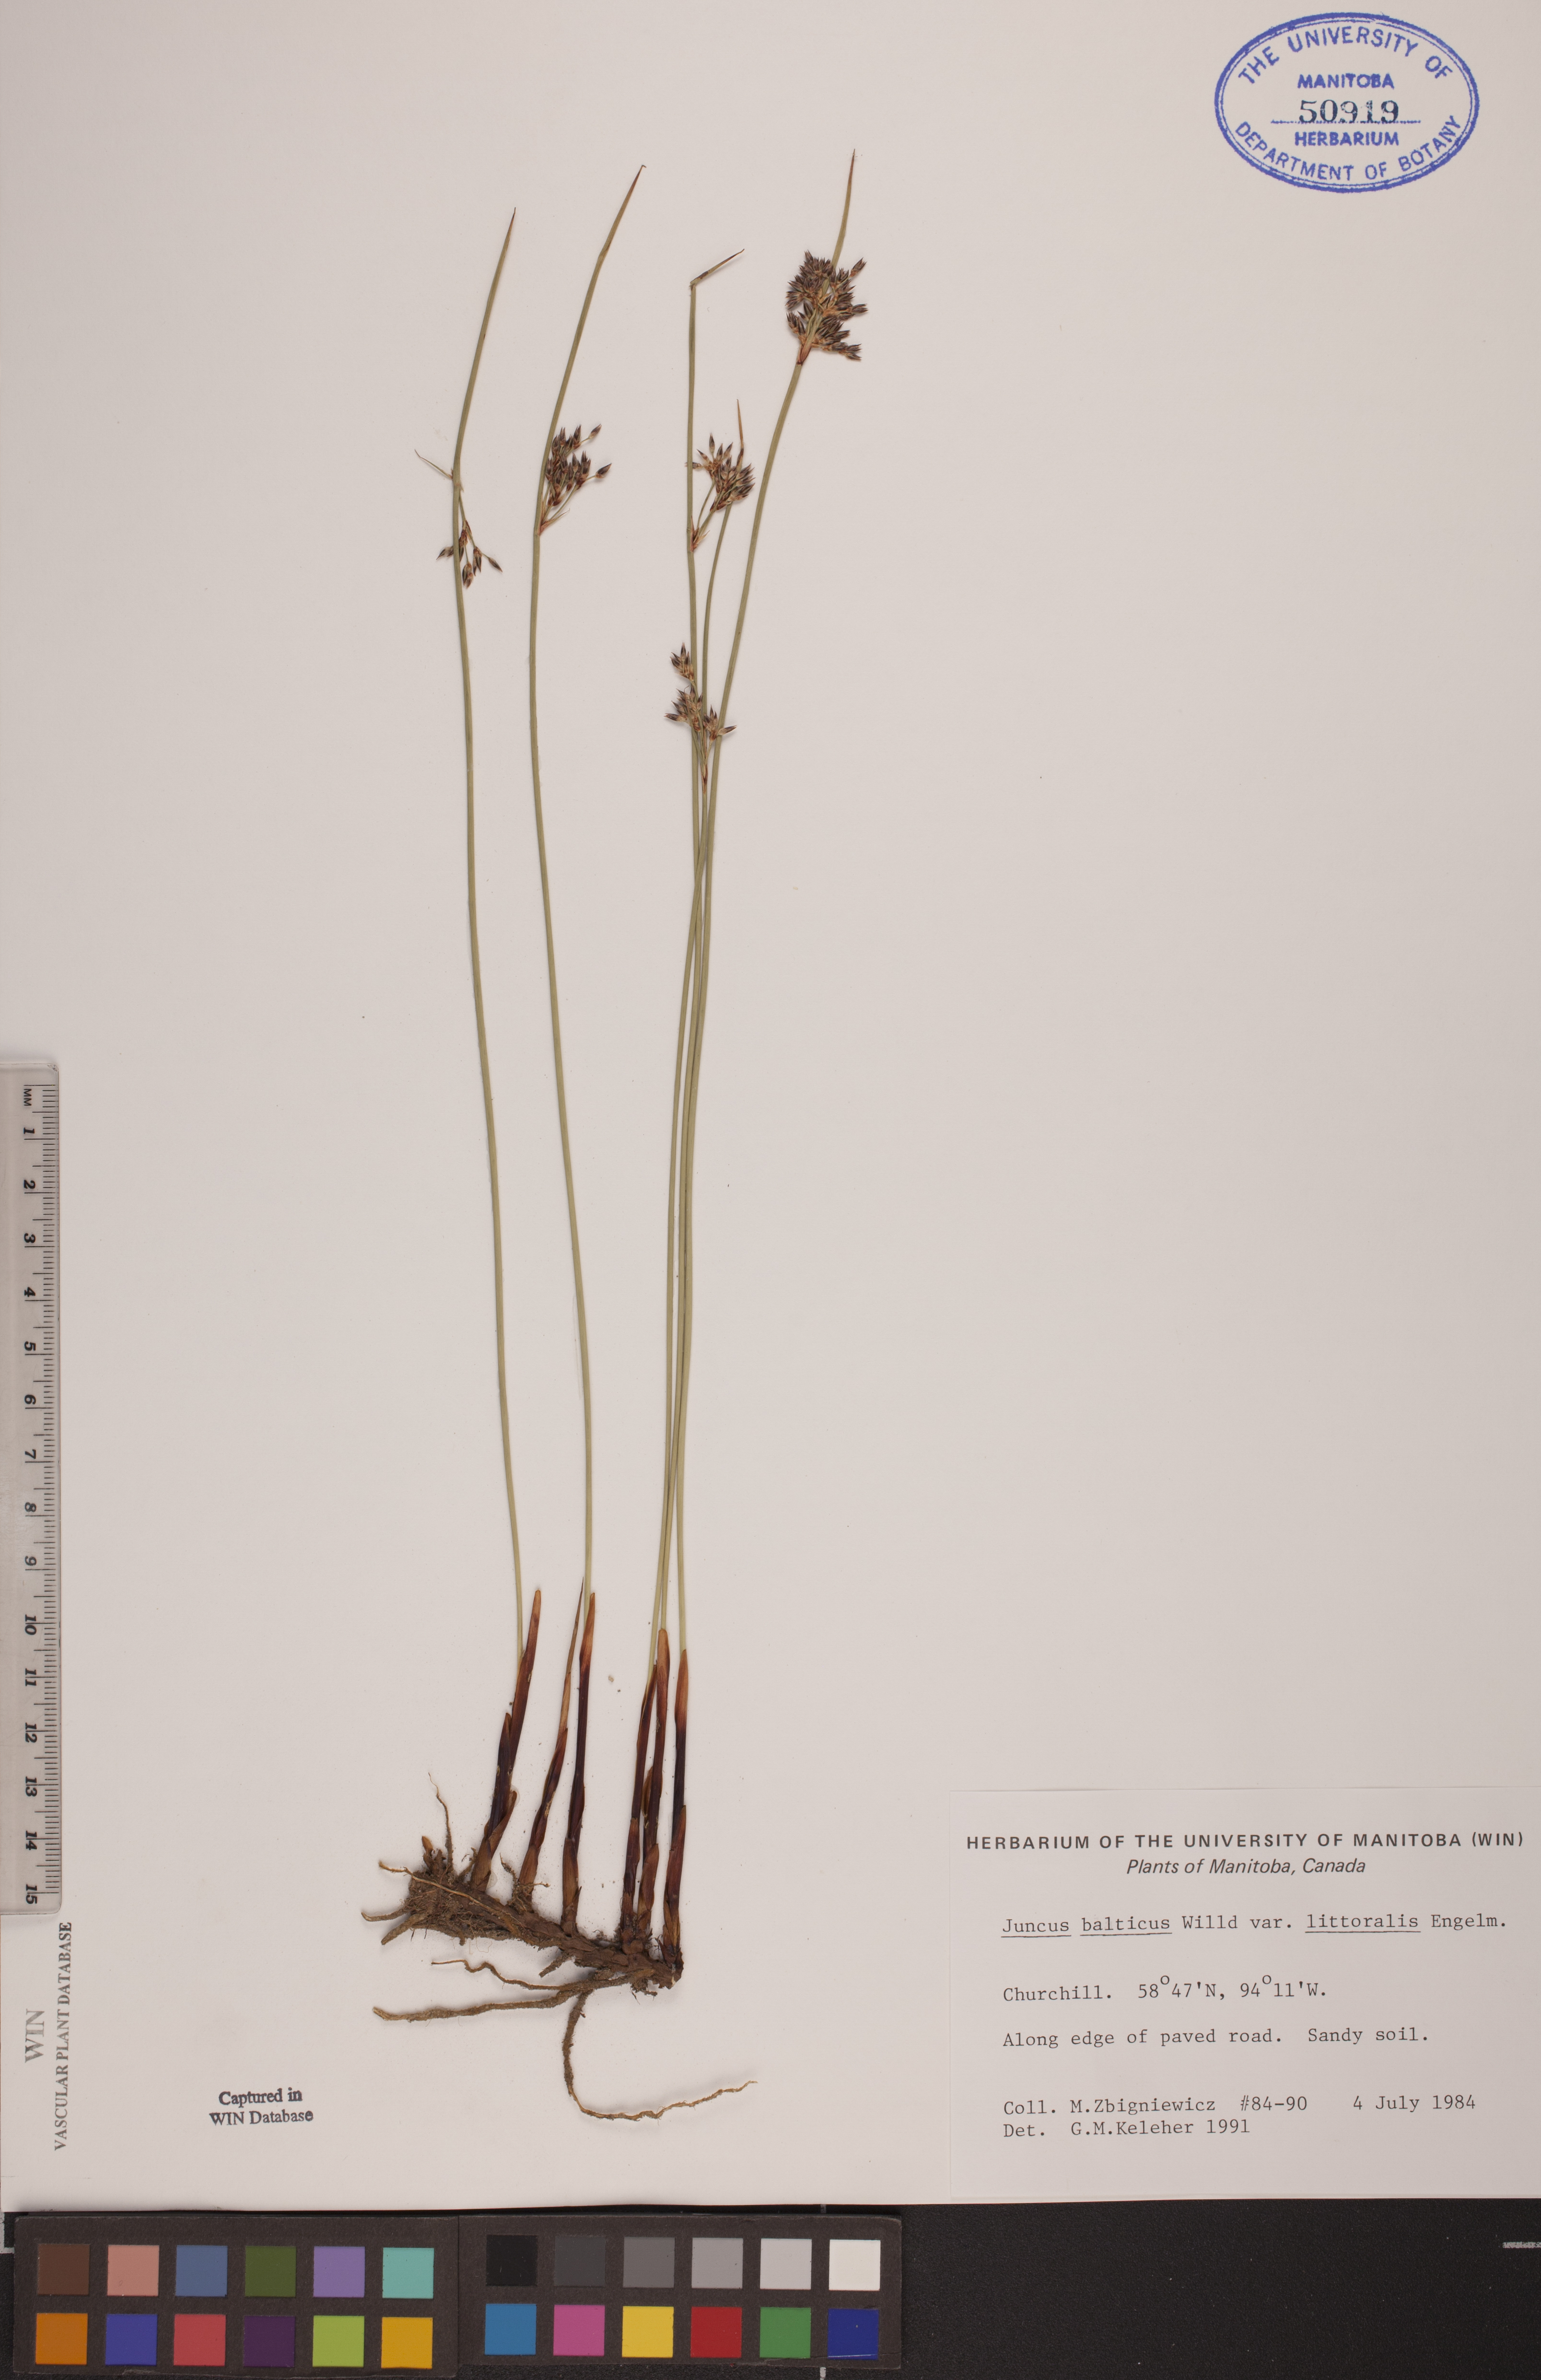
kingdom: Plantae
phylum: Tracheophyta
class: Liliopsida
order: Poales
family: Juncaceae
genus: Juncus
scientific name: Juncus balticus
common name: Baltic rush
